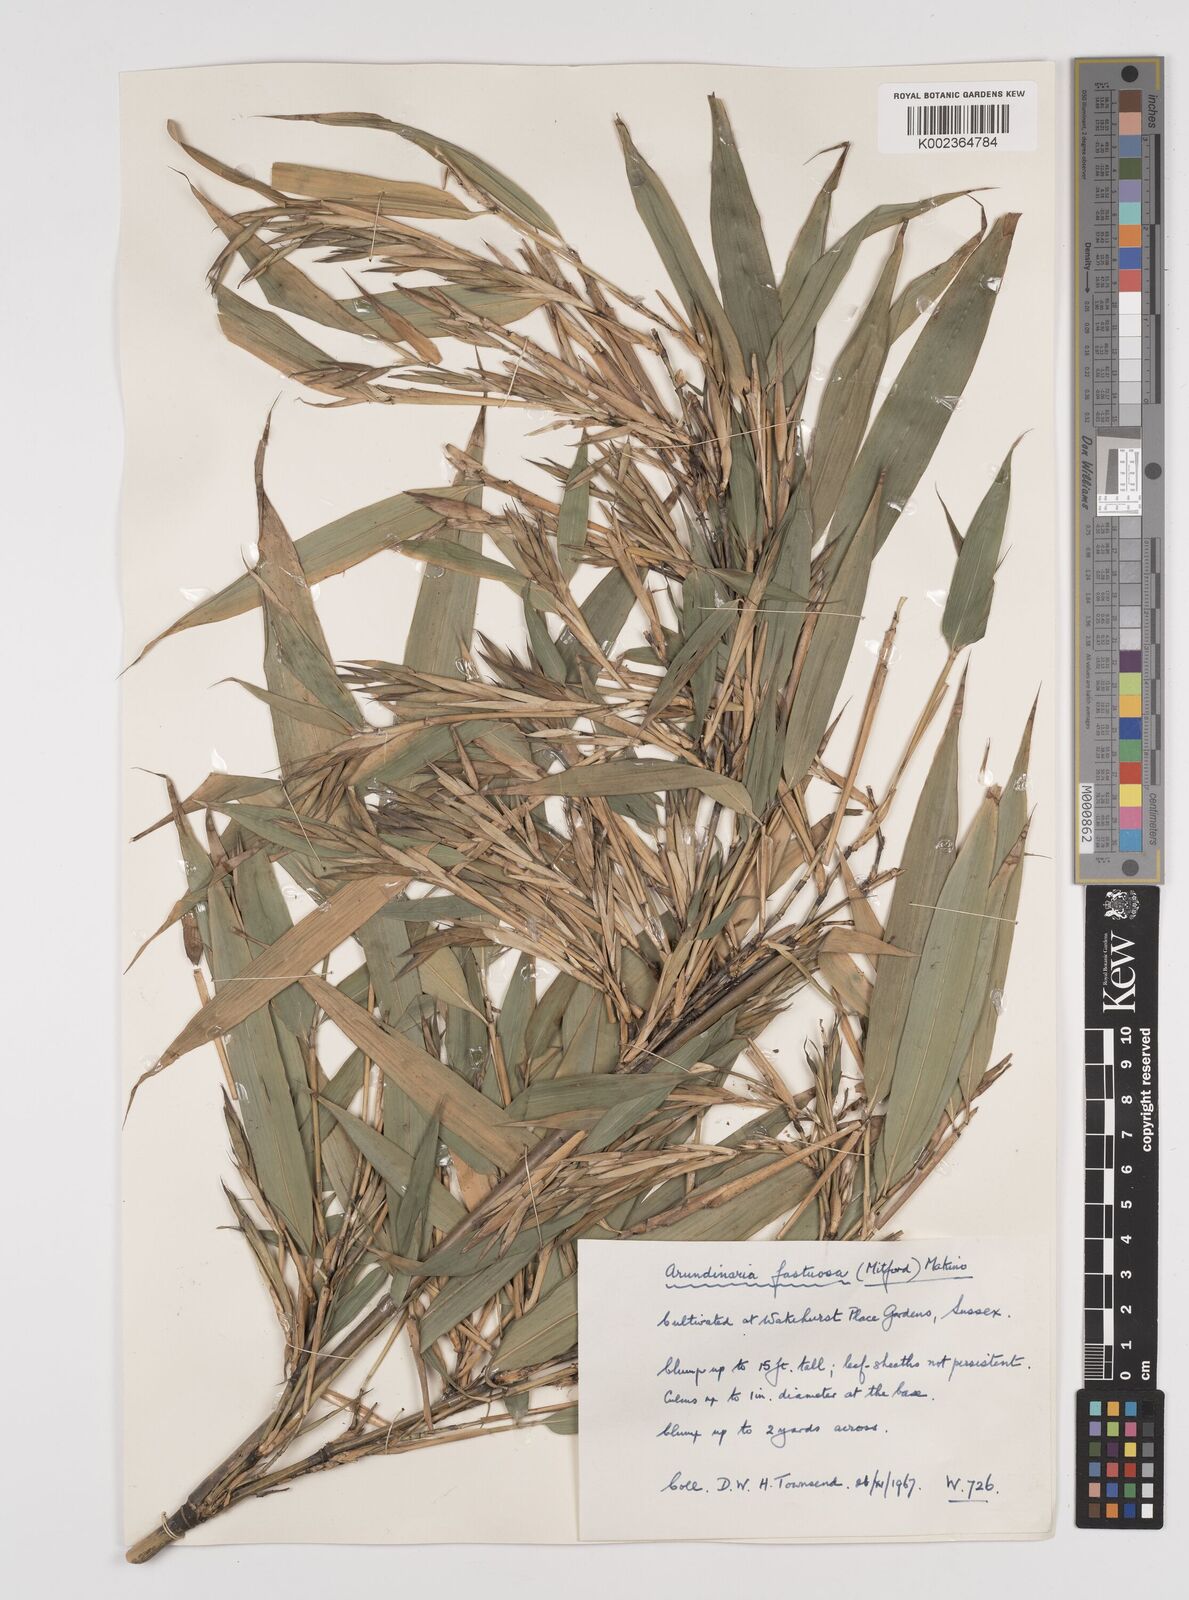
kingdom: Plantae
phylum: Tracheophyta
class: Liliopsida
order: Poales
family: Poaceae
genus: Semiarundinaria
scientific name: Semiarundinaria fastuosa
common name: Narihira bamboo
